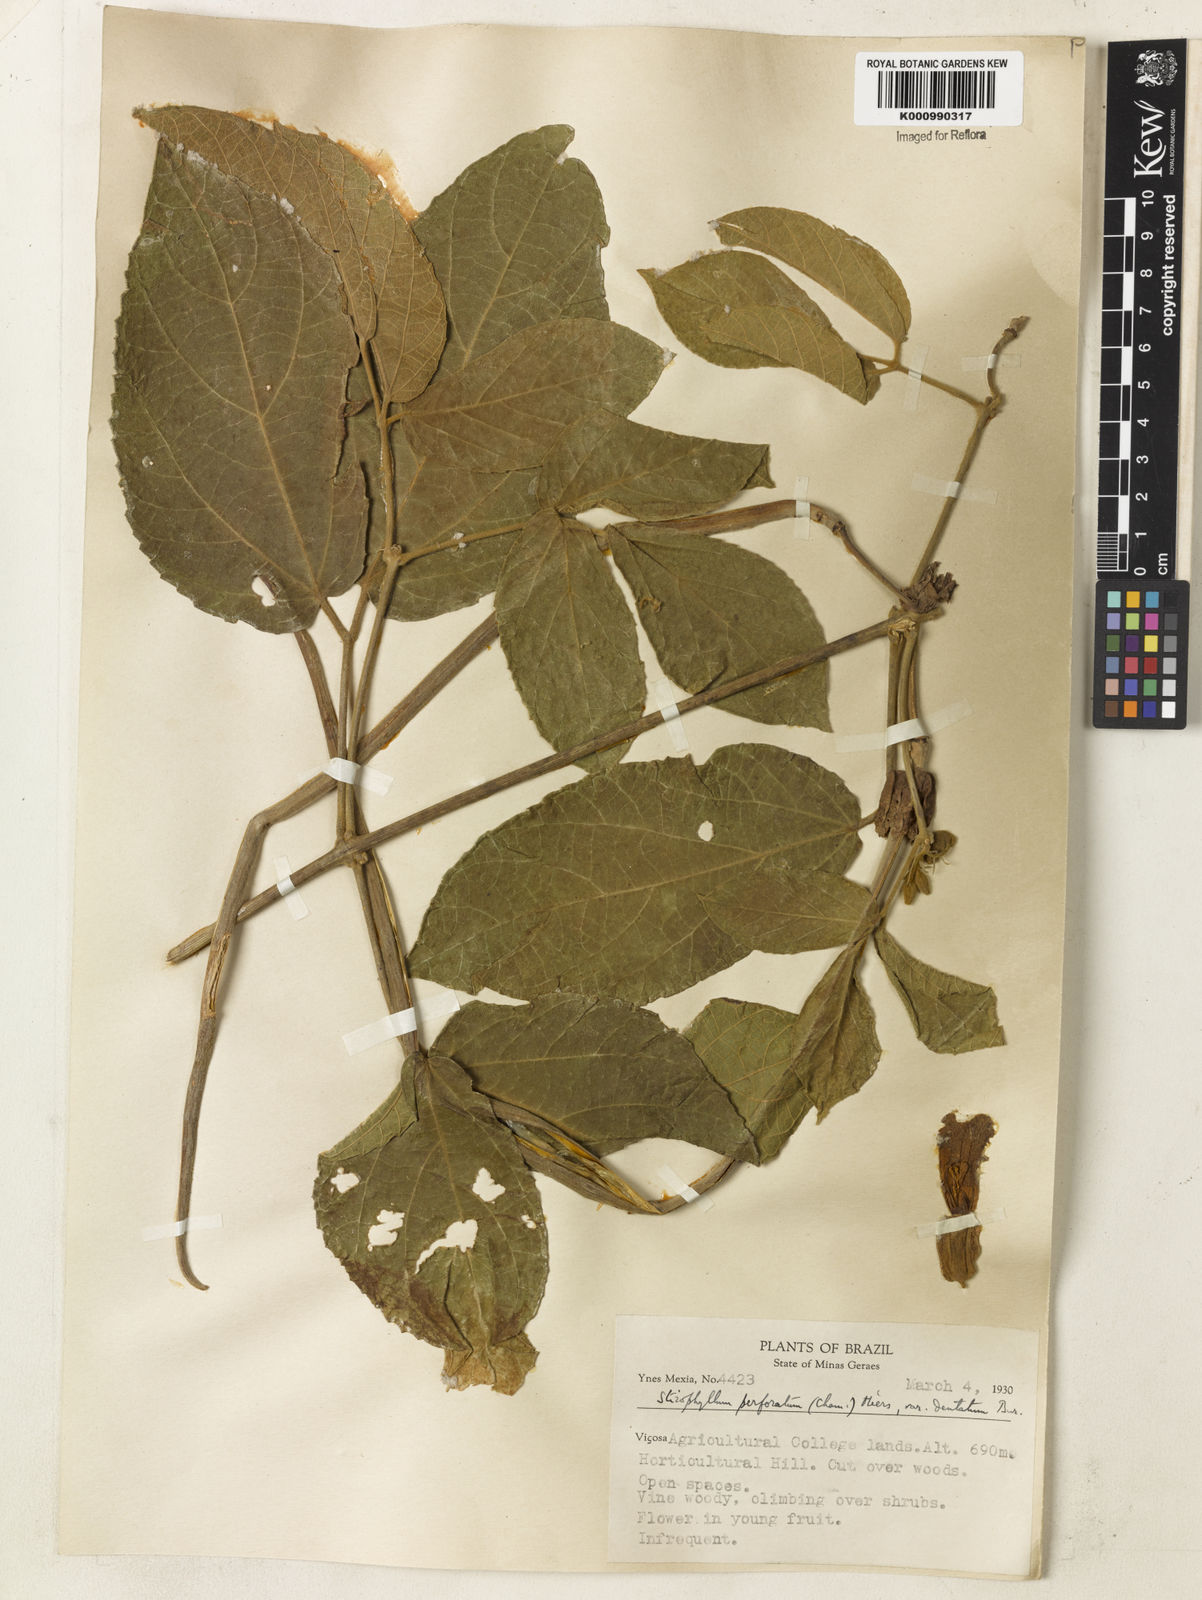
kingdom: Plantae
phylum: Tracheophyta
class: Magnoliopsida
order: Lamiales
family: Bignoniaceae
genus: Stizophyllum
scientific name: Stizophyllum perforatum
